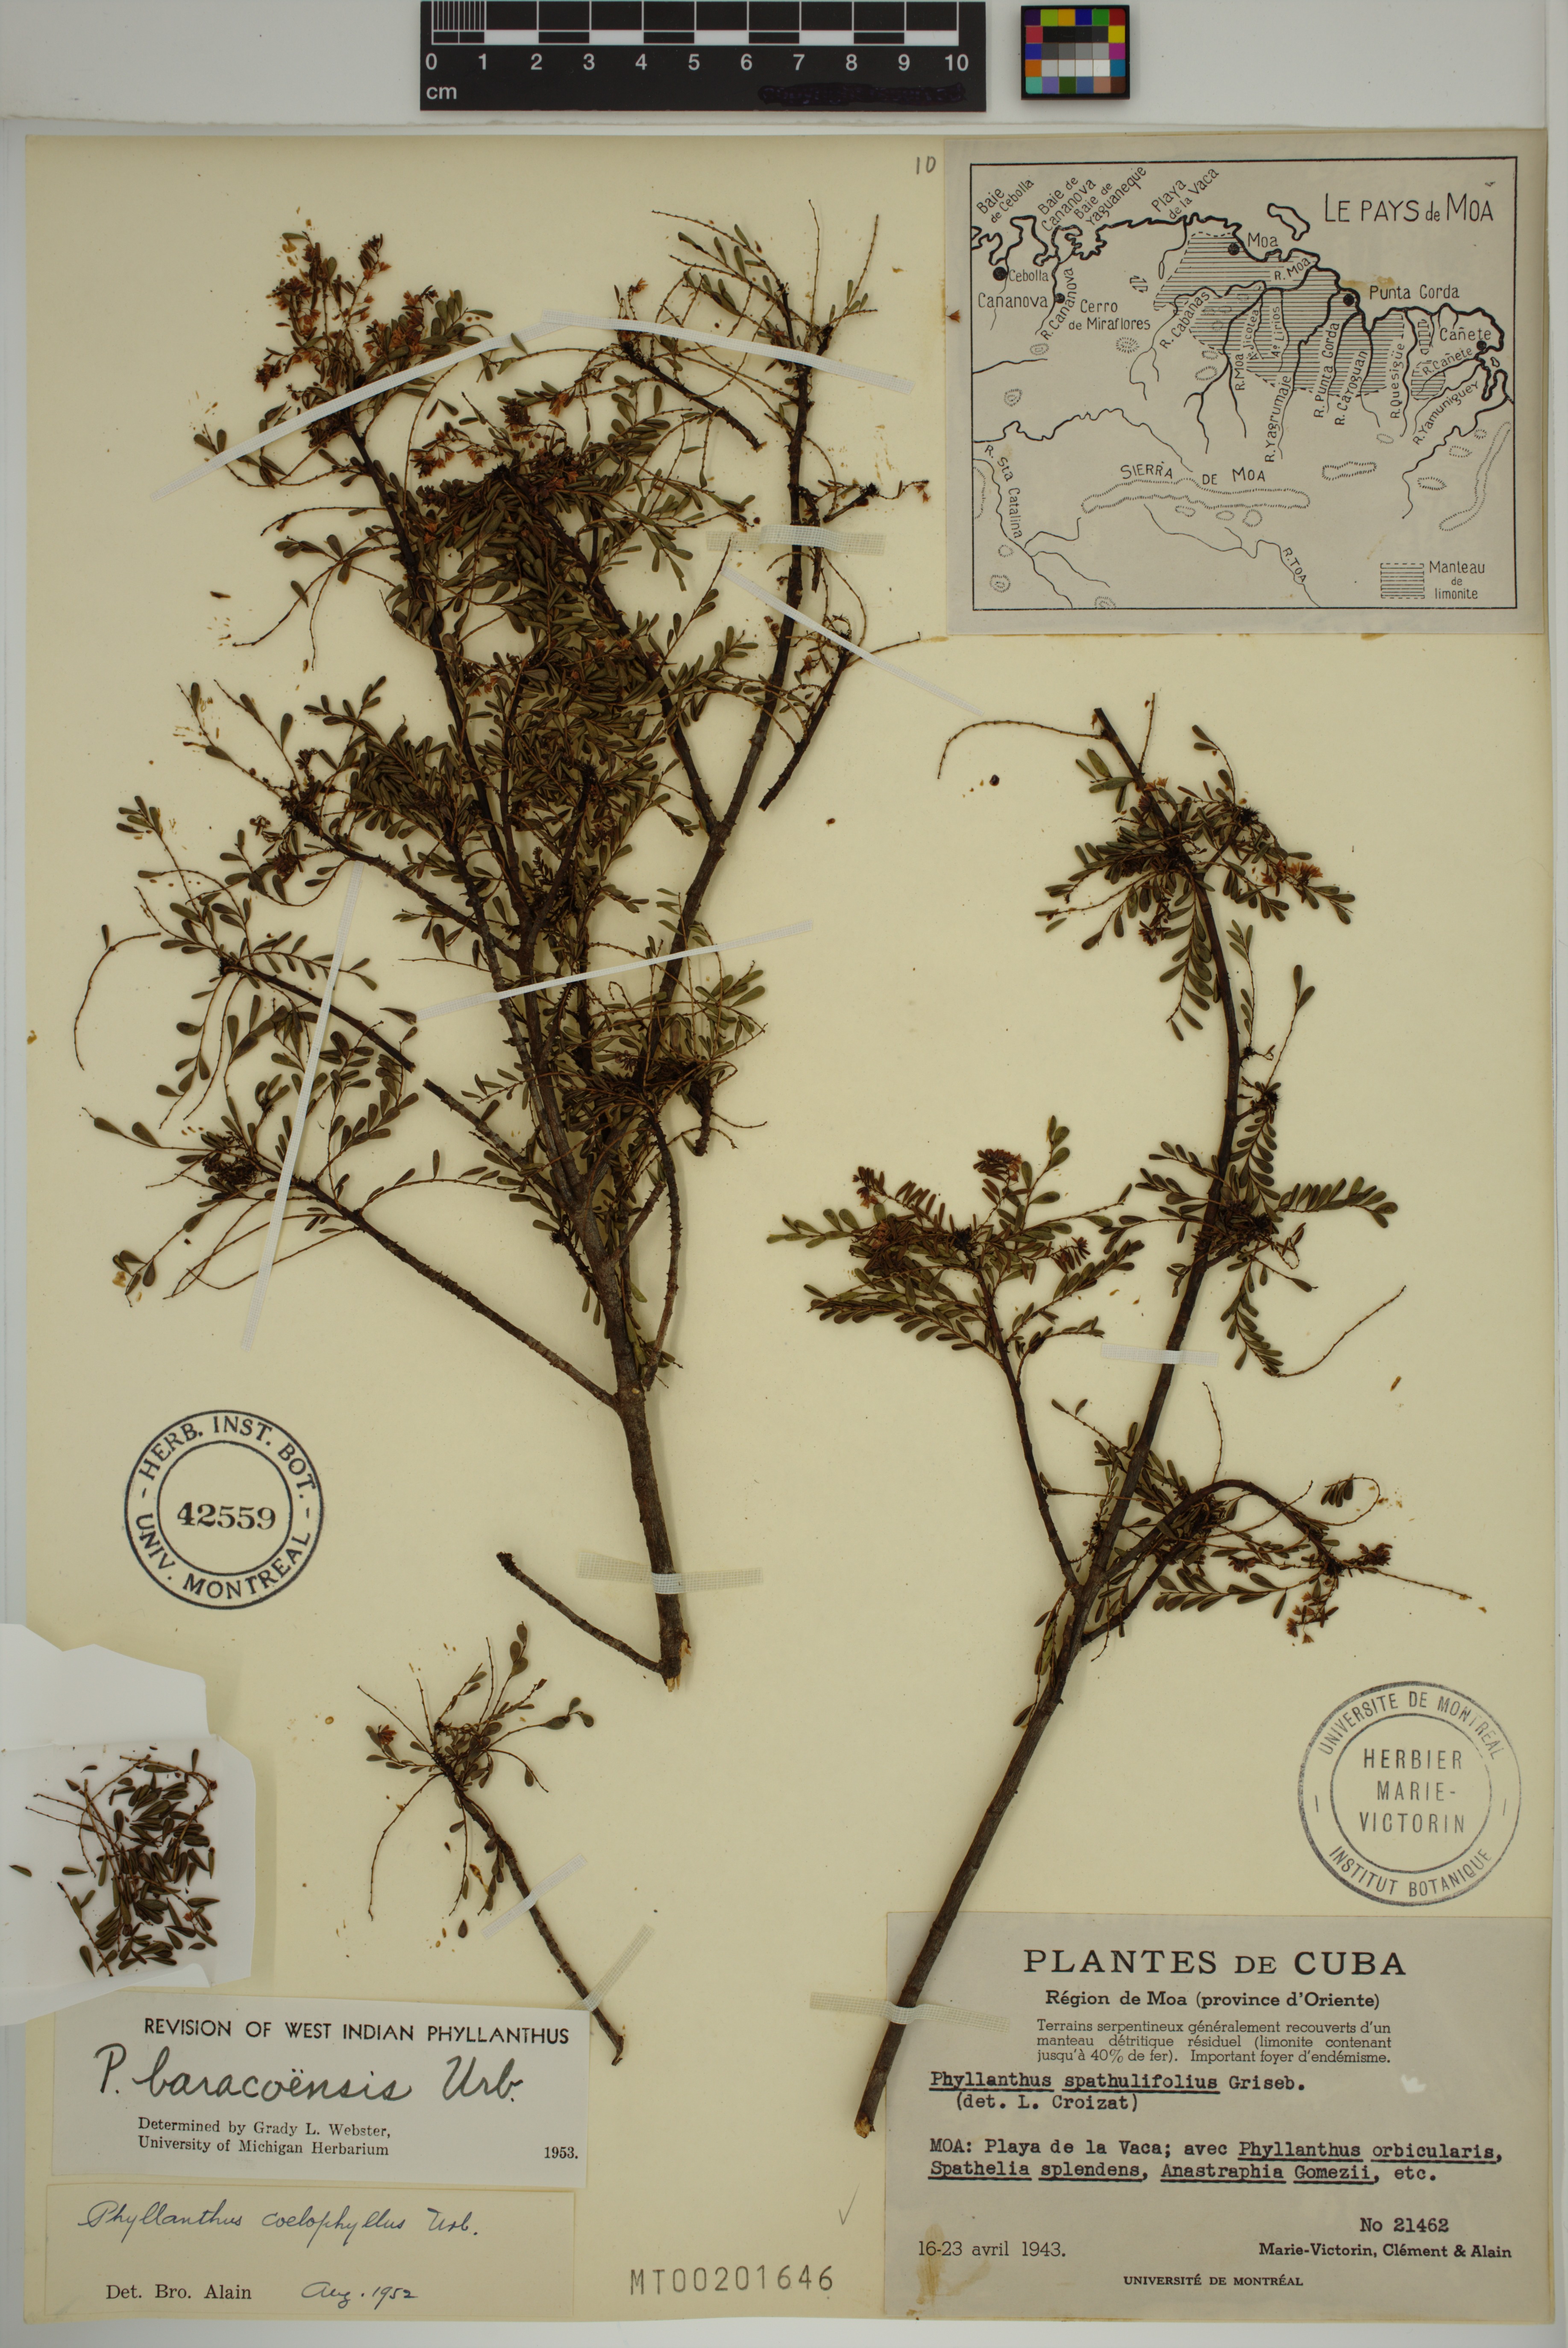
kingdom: Plantae
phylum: Tracheophyta
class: Magnoliopsida
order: Malpighiales
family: Phyllanthaceae
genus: Phyllanthus
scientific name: Phyllanthus chamaecristoides
